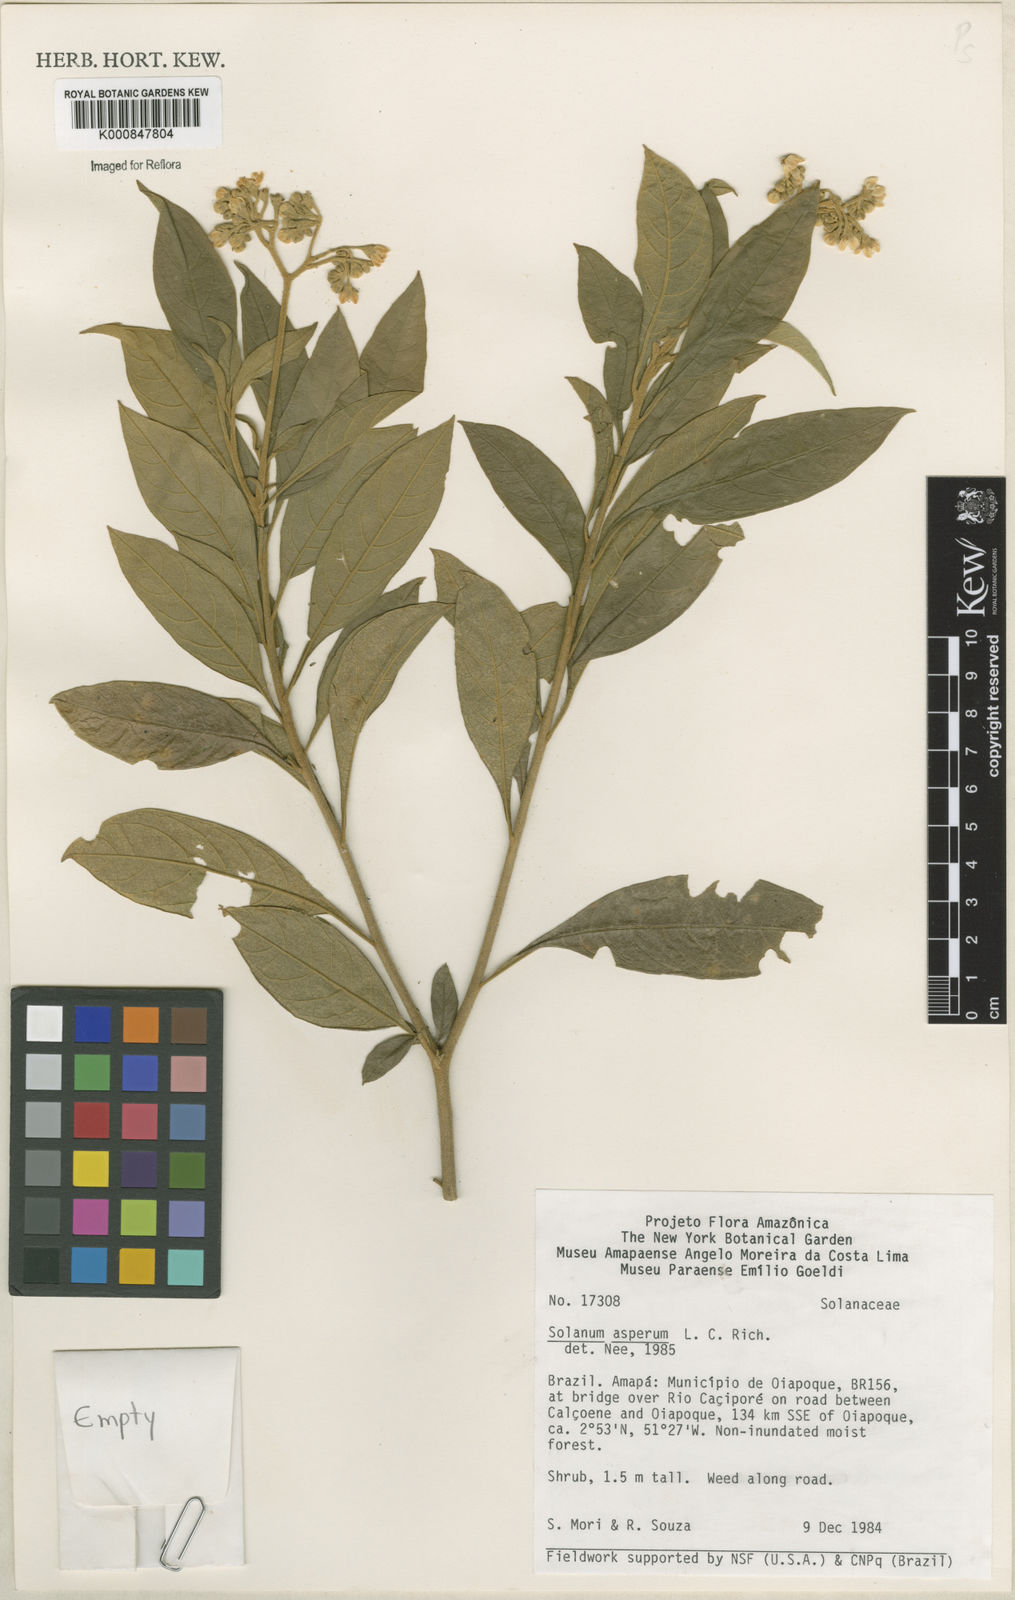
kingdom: Plantae
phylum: Tracheophyta
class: Magnoliopsida
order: Solanales
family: Solanaceae
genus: Solanum
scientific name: Solanum asperum
